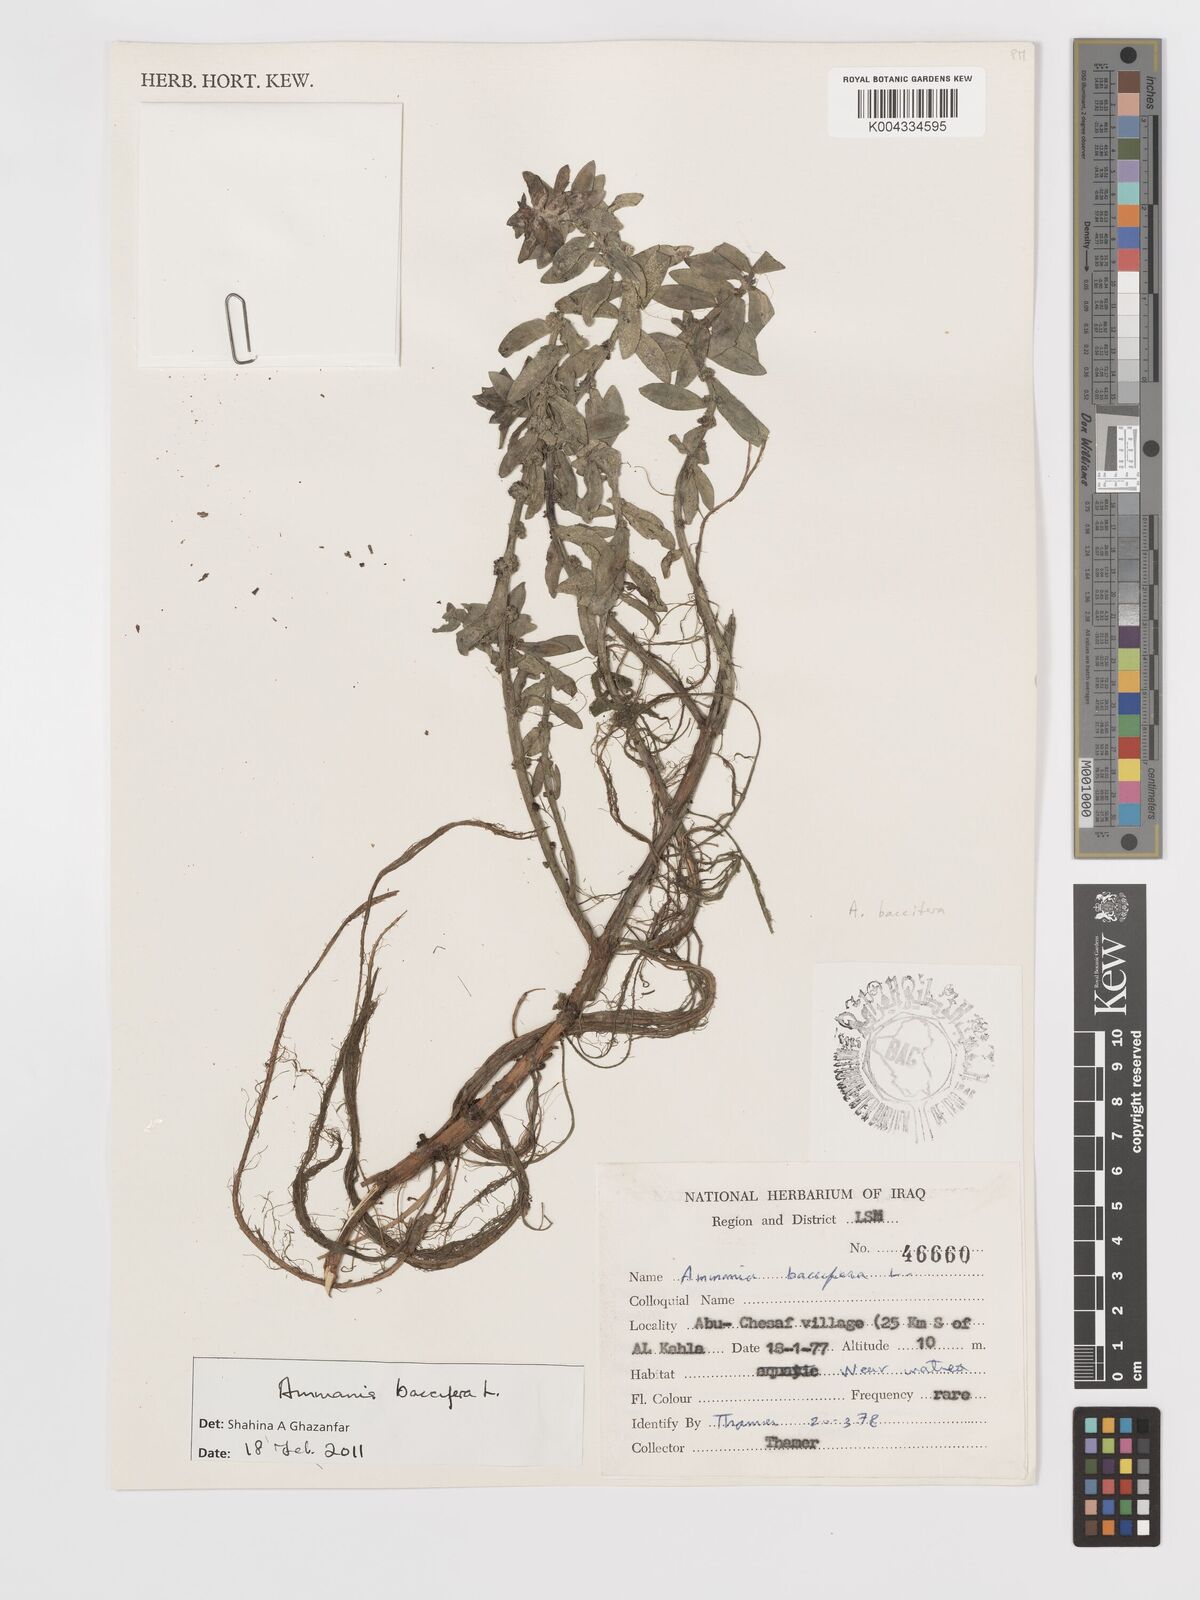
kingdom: Plantae
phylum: Tracheophyta
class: Magnoliopsida
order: Myrtales
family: Lythraceae
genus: Ammannia
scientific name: Ammannia baccifera
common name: Blistering ammania
